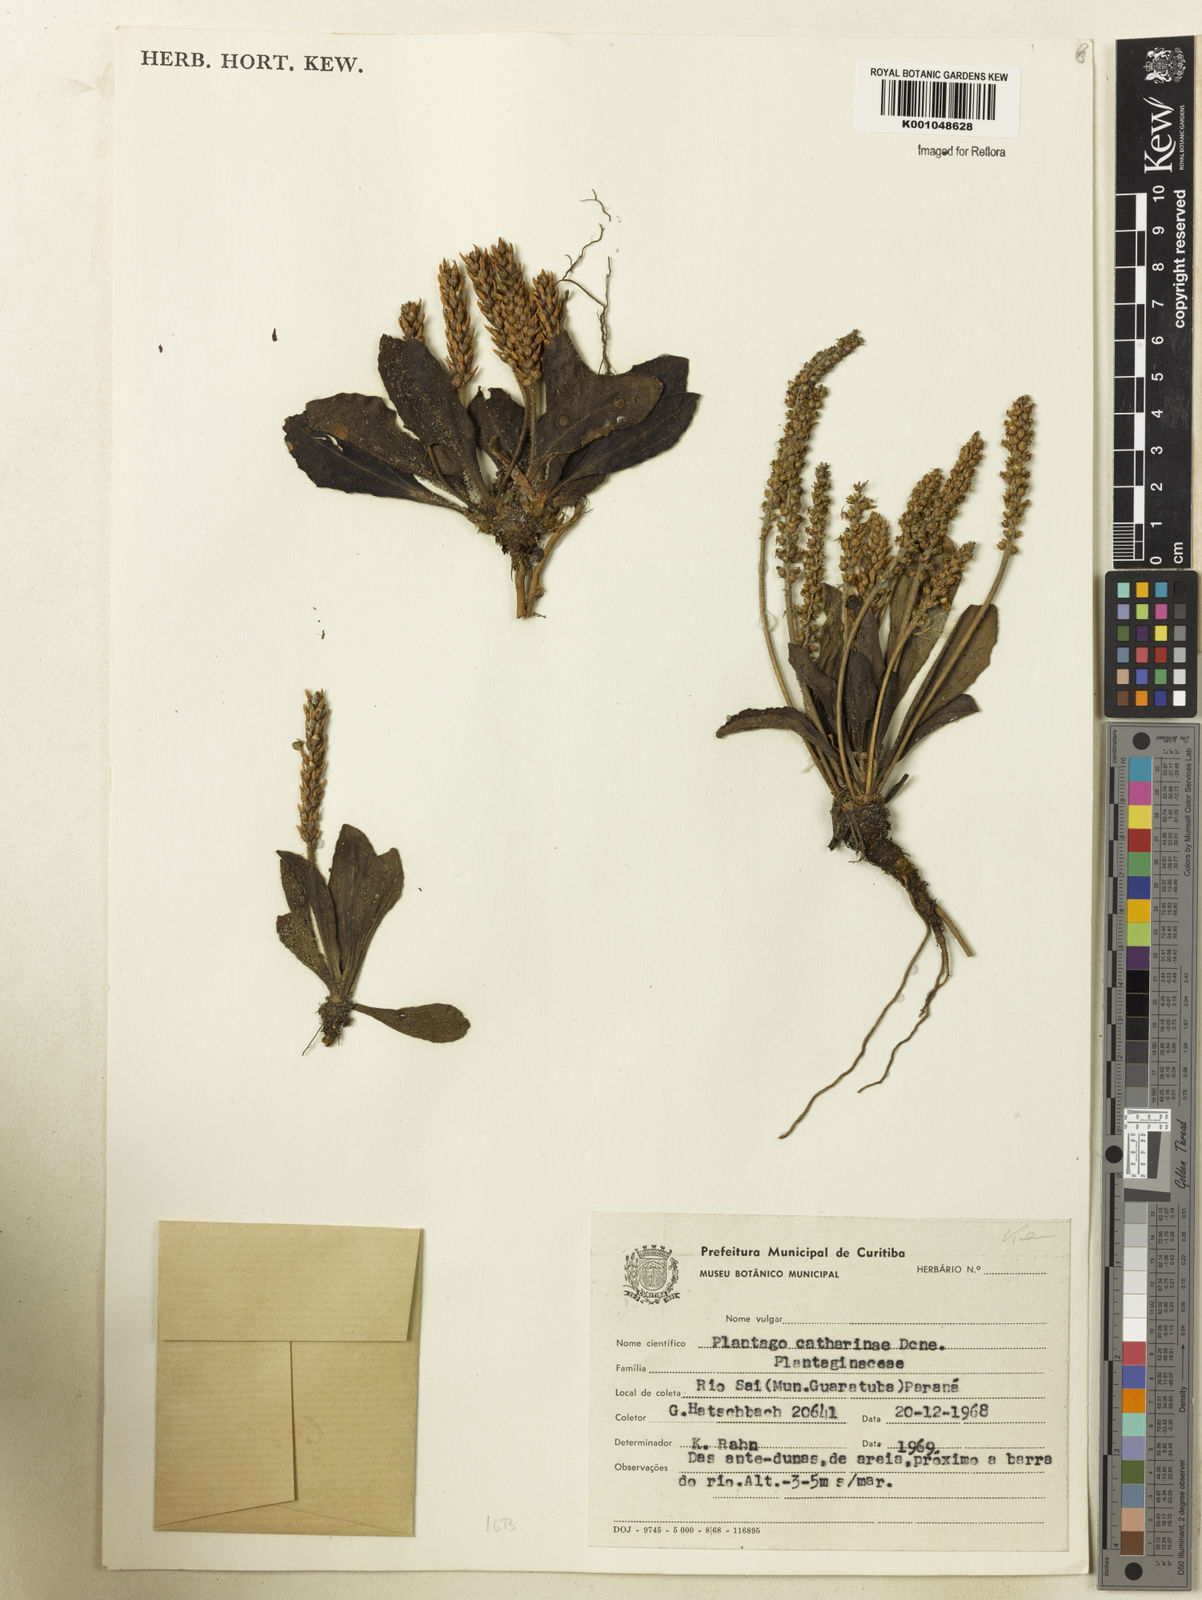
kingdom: Plantae
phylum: Tracheophyta
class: Magnoliopsida
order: Lamiales
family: Plantaginaceae
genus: Plantago
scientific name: Plantago catharinea
